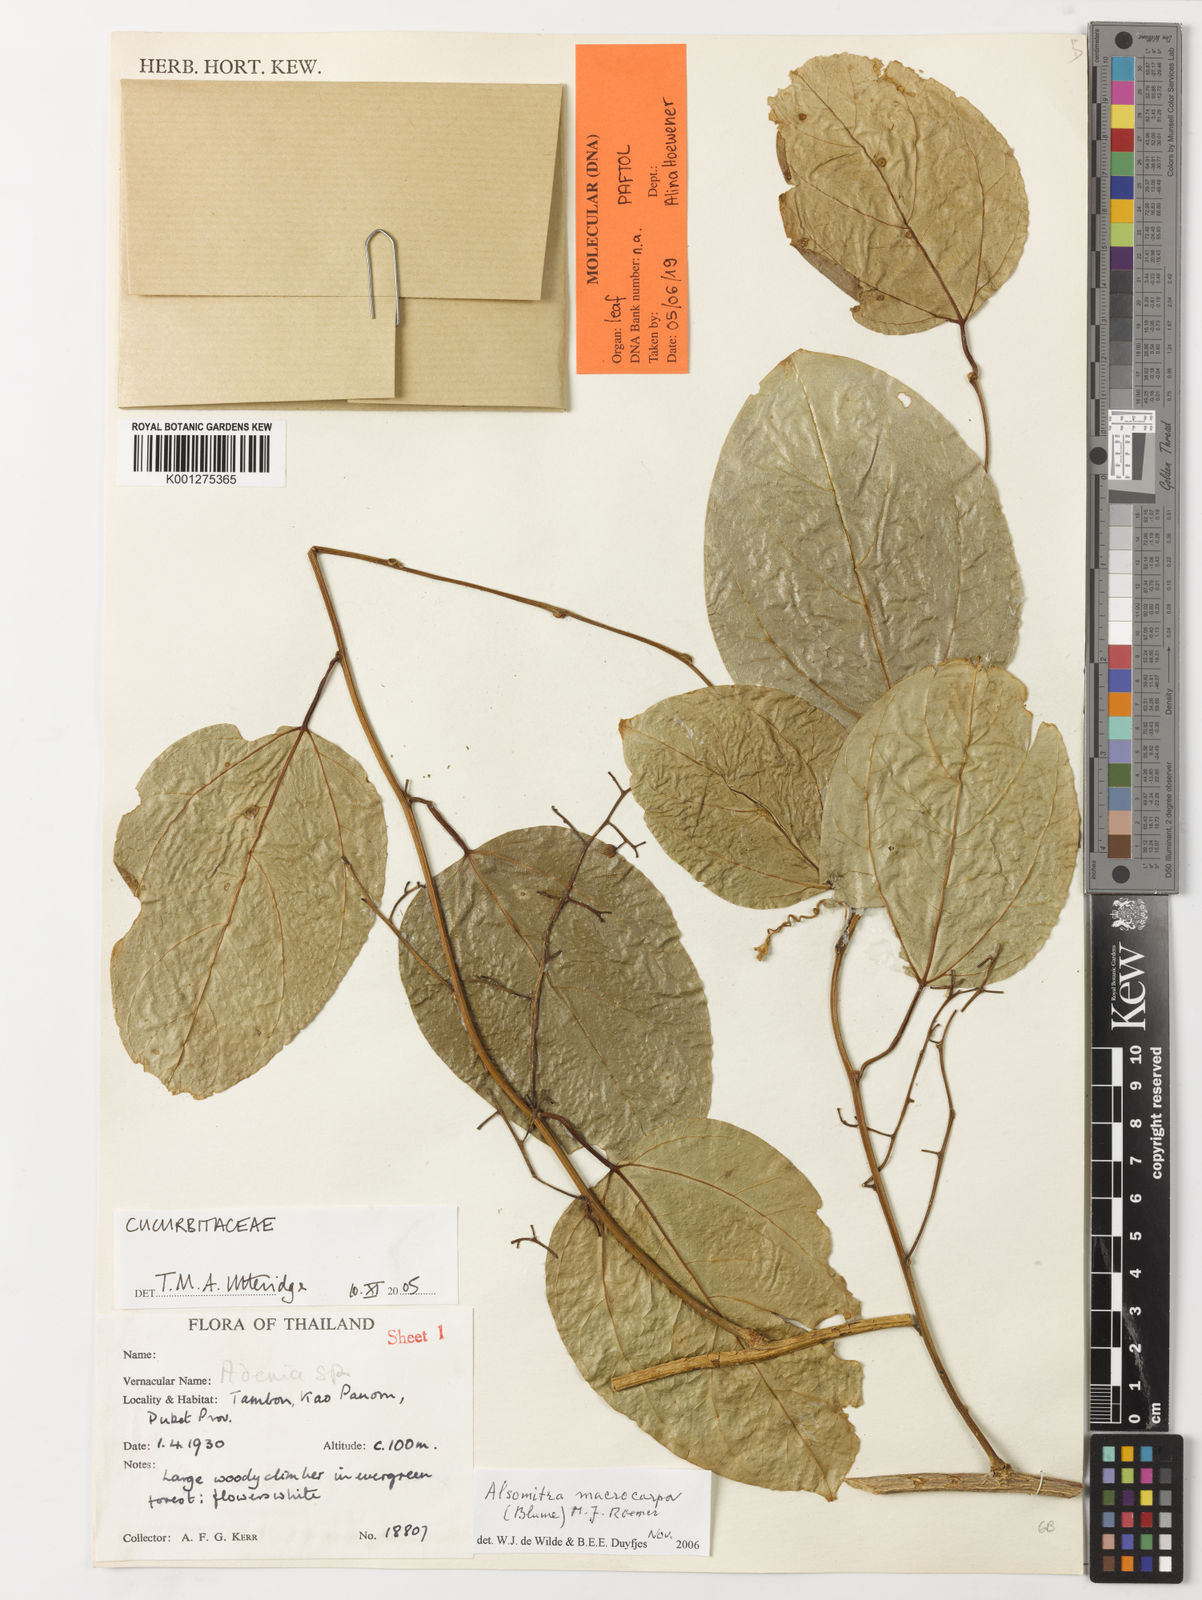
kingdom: Plantae
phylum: Tracheophyta
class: Magnoliopsida
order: Cucurbitales
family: Cucurbitaceae
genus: Alsomitra
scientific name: Alsomitra macrocarpa
